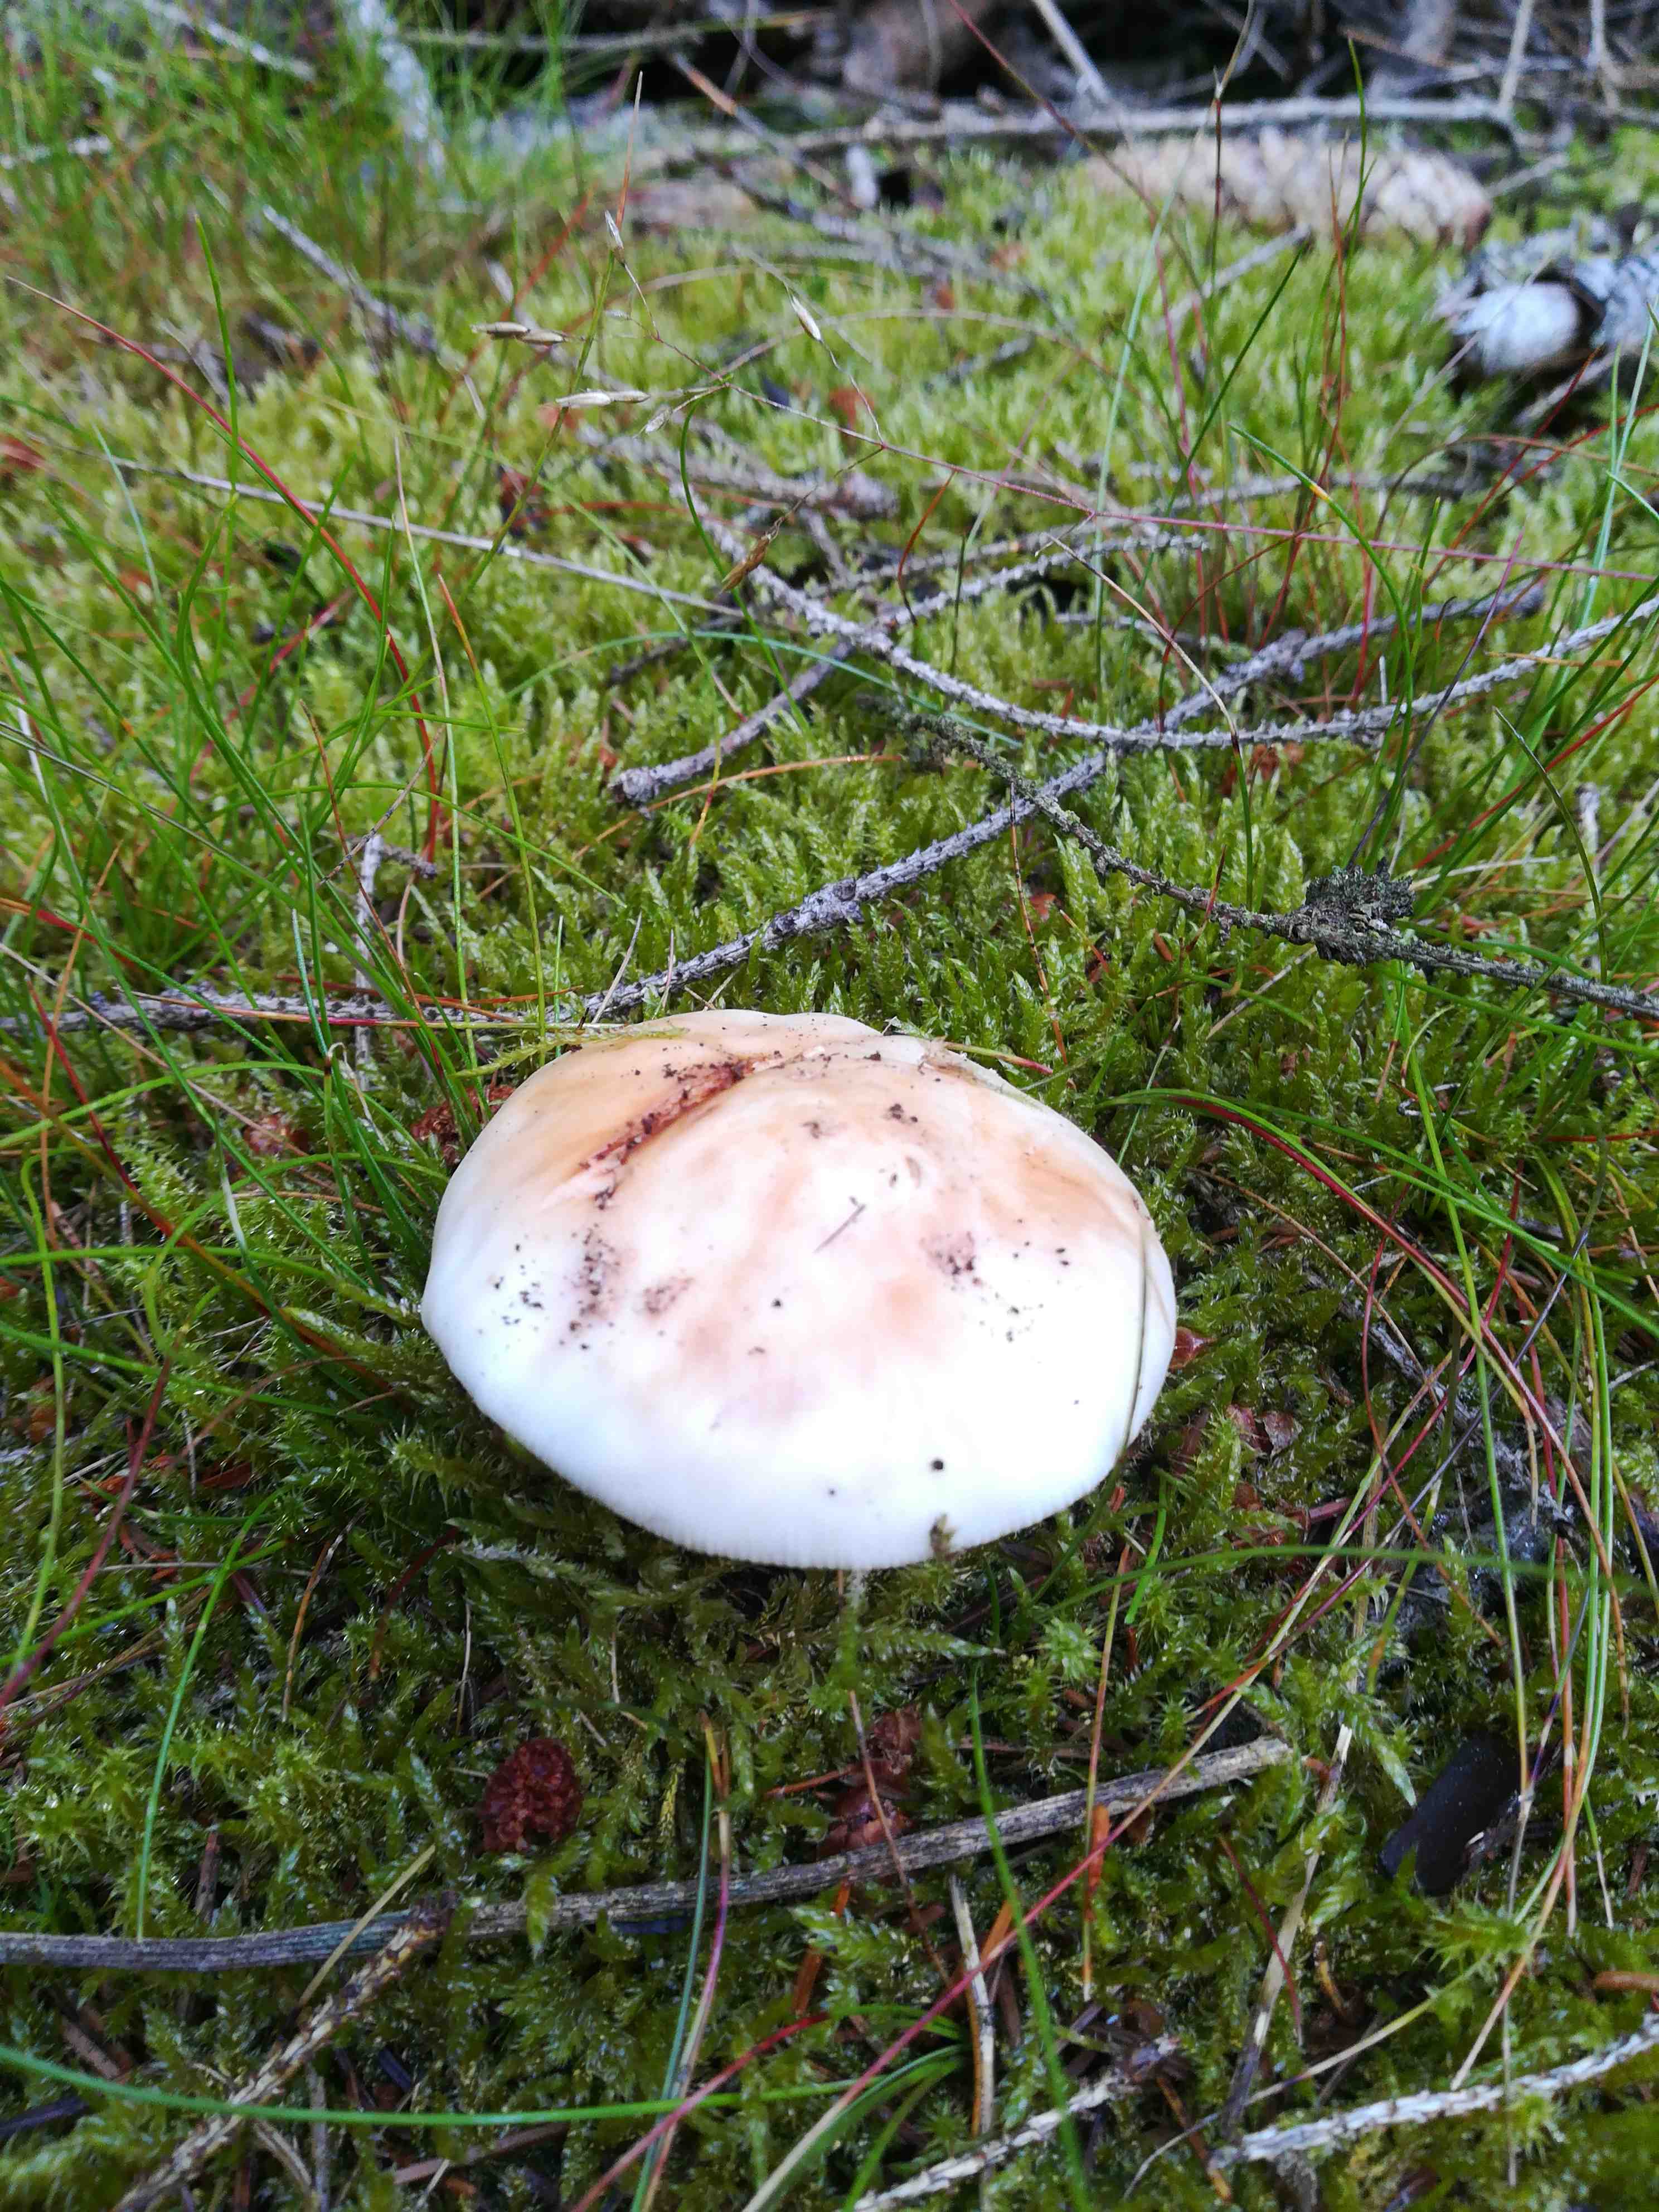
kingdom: Fungi
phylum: Basidiomycota
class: Agaricomycetes
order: Agaricales
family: Amanitaceae
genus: Amanita
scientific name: Amanita rubescens
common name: rødmende fluesvamp
